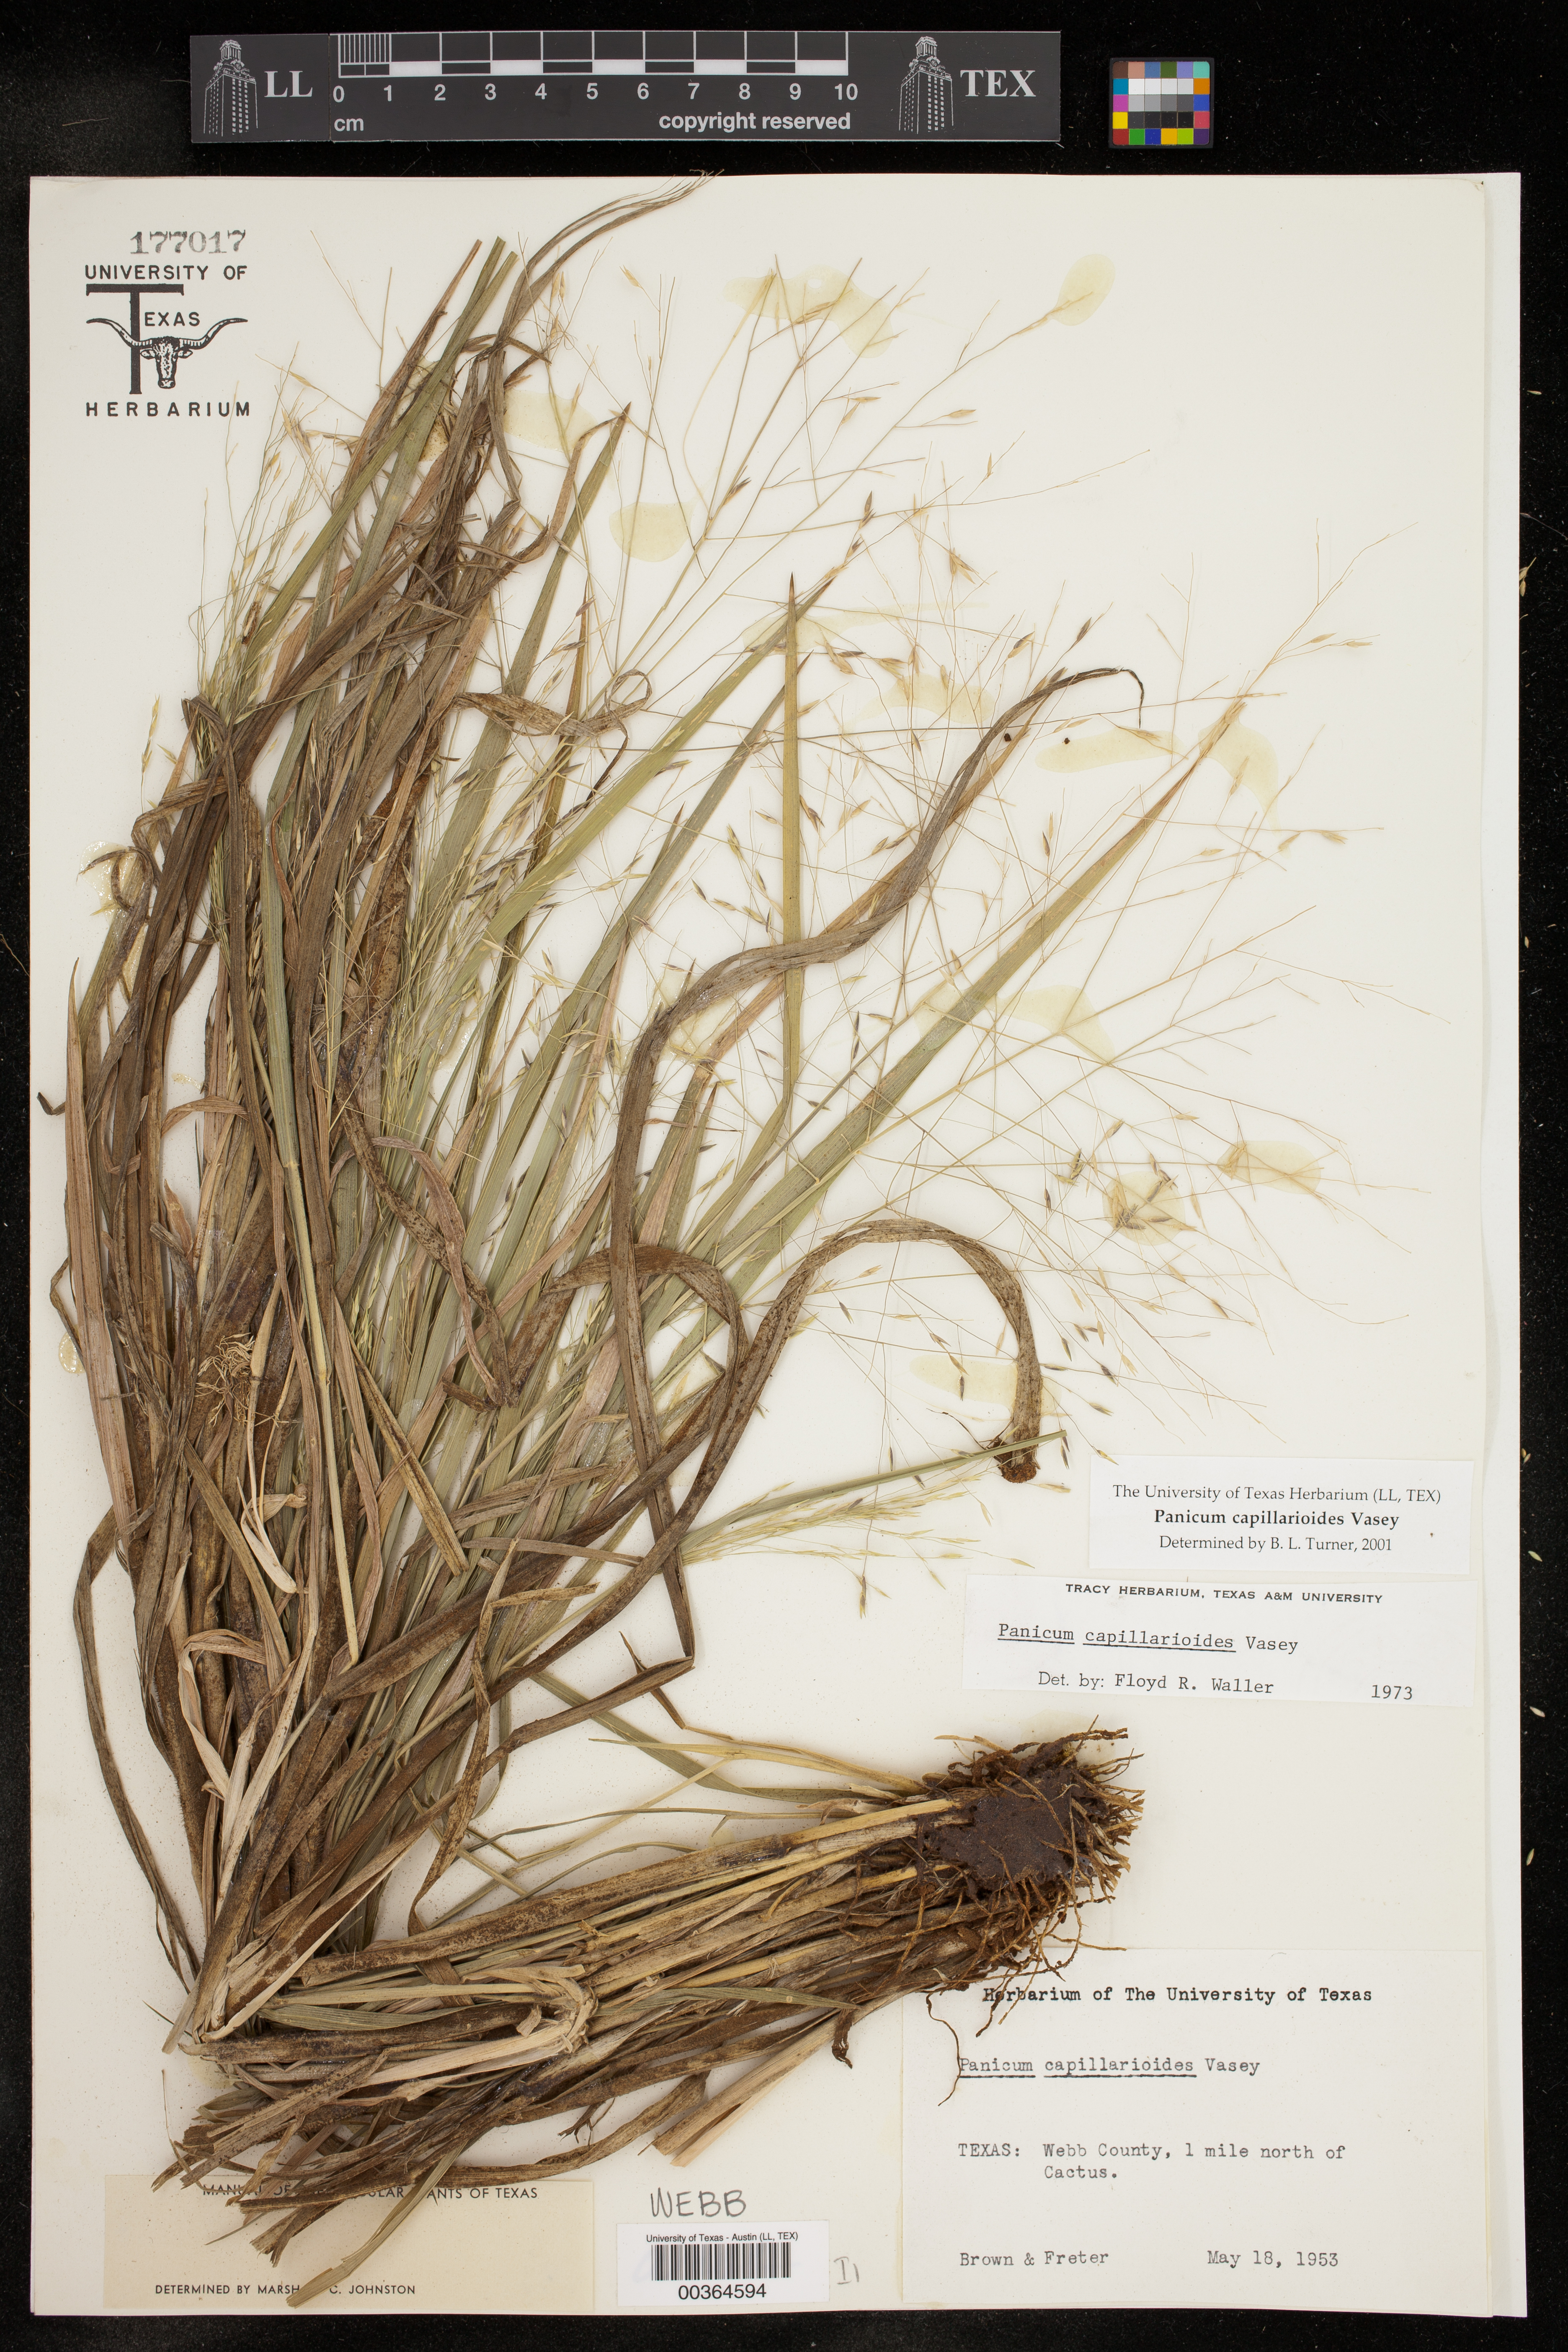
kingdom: Plantae
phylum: Tracheophyta
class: Liliopsida
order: Poales
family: Poaceae
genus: Panicum
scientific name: Panicum capillarioides
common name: Long-beak witchgrass
